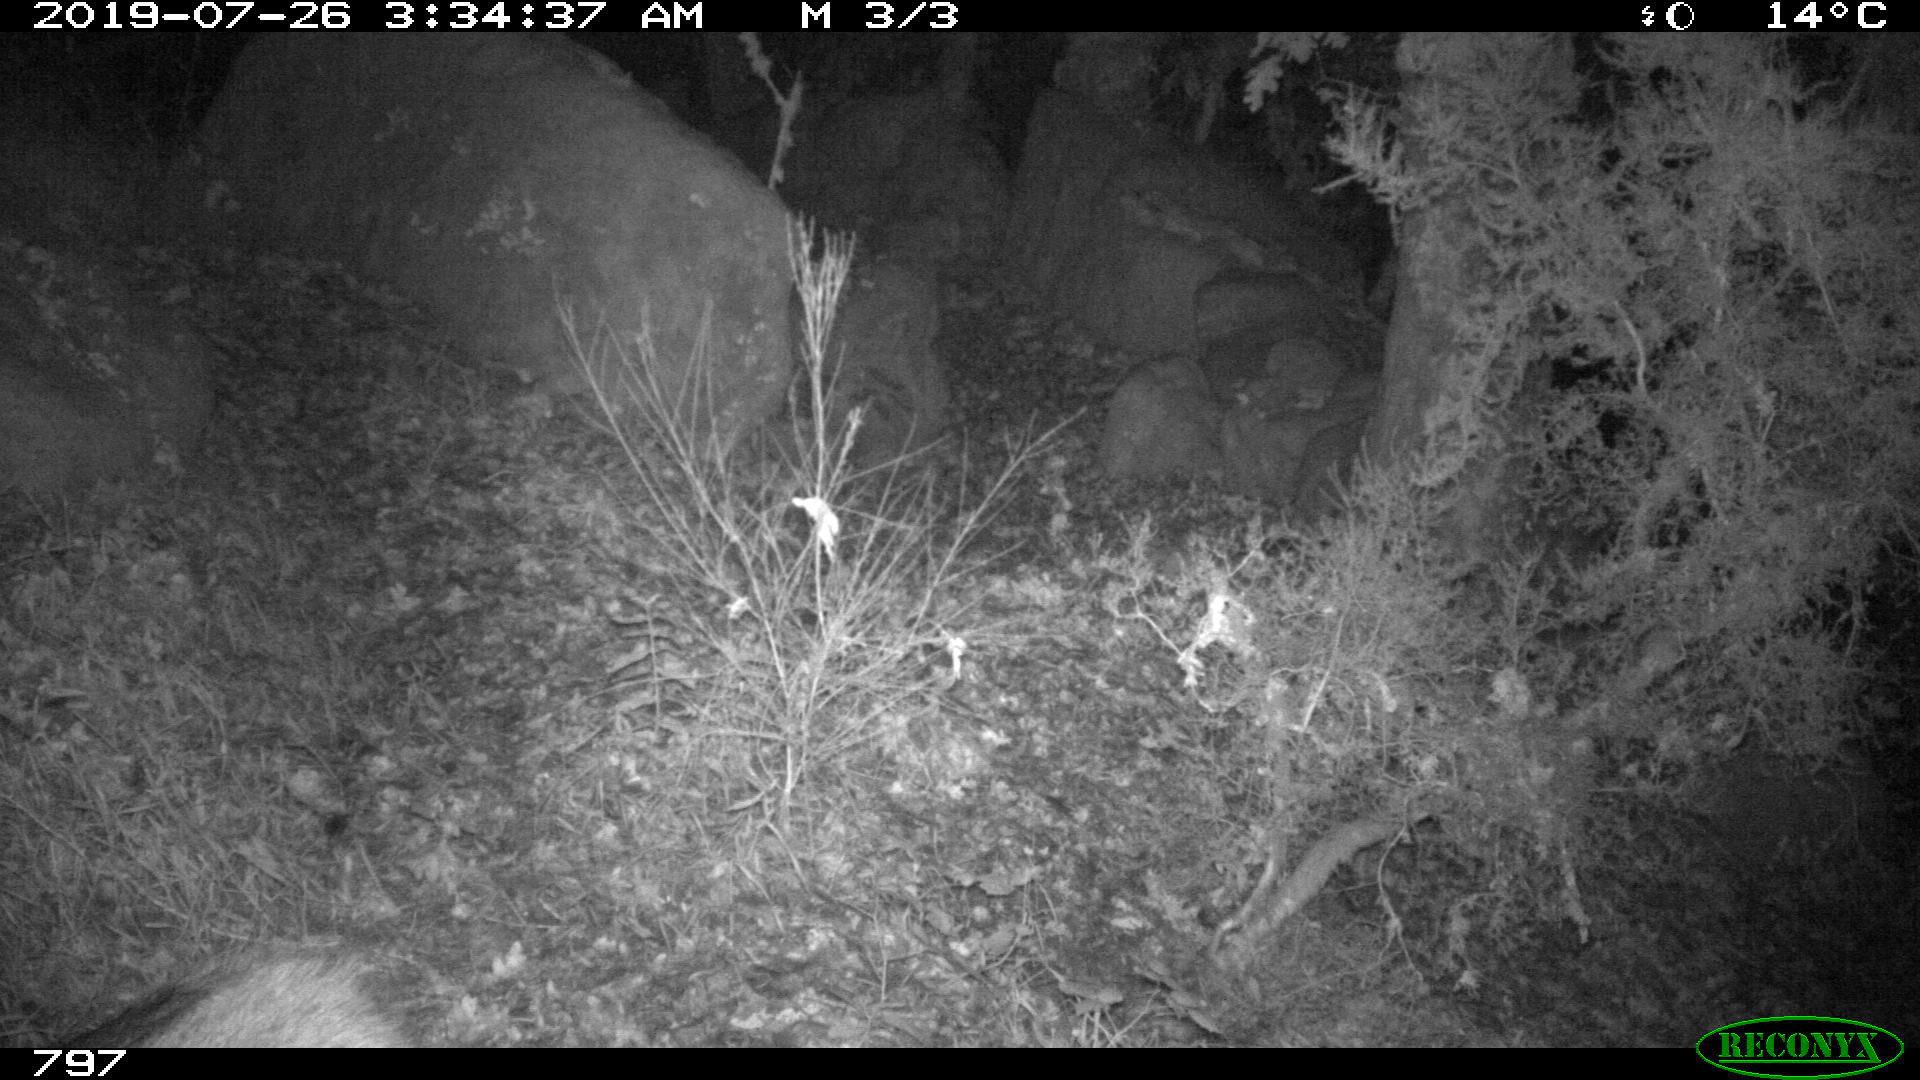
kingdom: Animalia
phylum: Chordata
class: Mammalia
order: Artiodactyla
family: Suidae
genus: Sus
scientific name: Sus scrofa
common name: Wild boar
